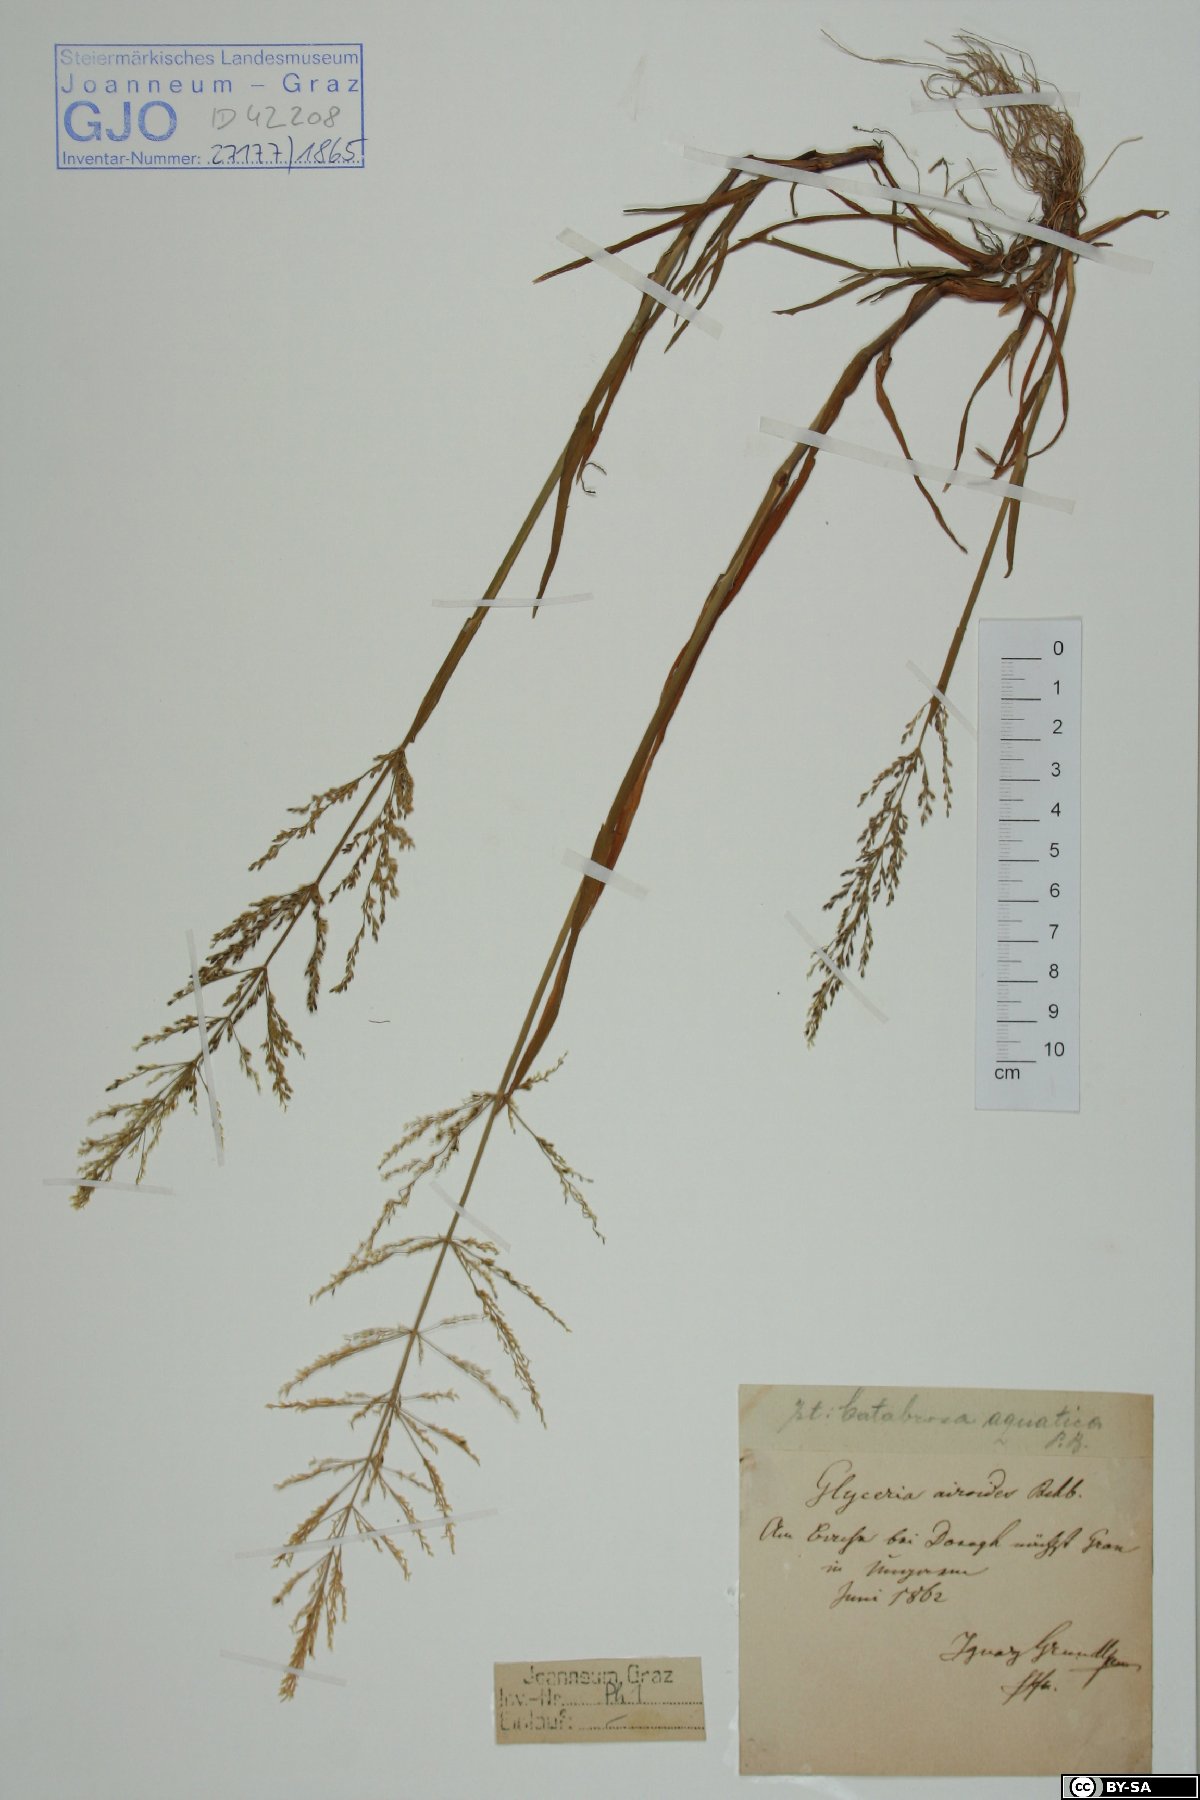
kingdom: Plantae
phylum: Tracheophyta
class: Liliopsida
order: Poales
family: Poaceae
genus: Catabrosa
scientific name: Catabrosa aquatica
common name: Whorl-grass
